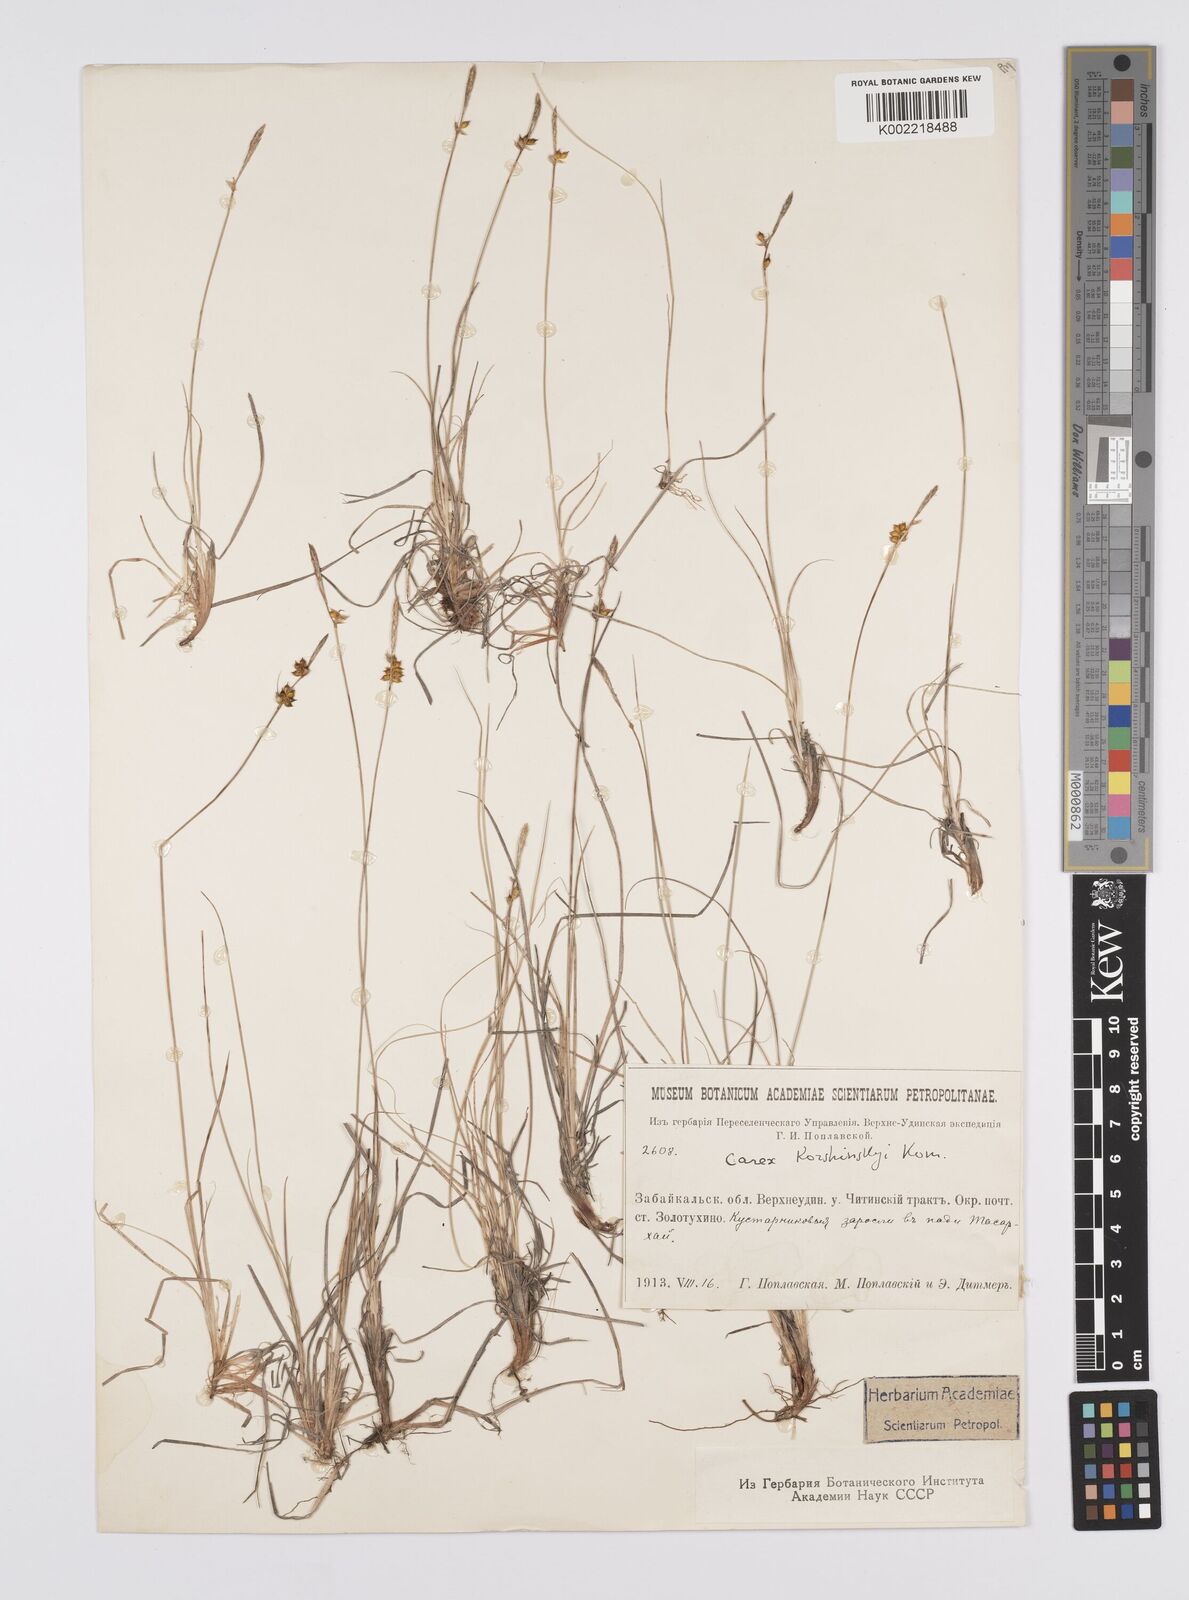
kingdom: Plantae
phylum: Tracheophyta
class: Liliopsida
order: Poales
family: Cyperaceae
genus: Carex
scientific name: Carex supina
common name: Lying-back sedge
